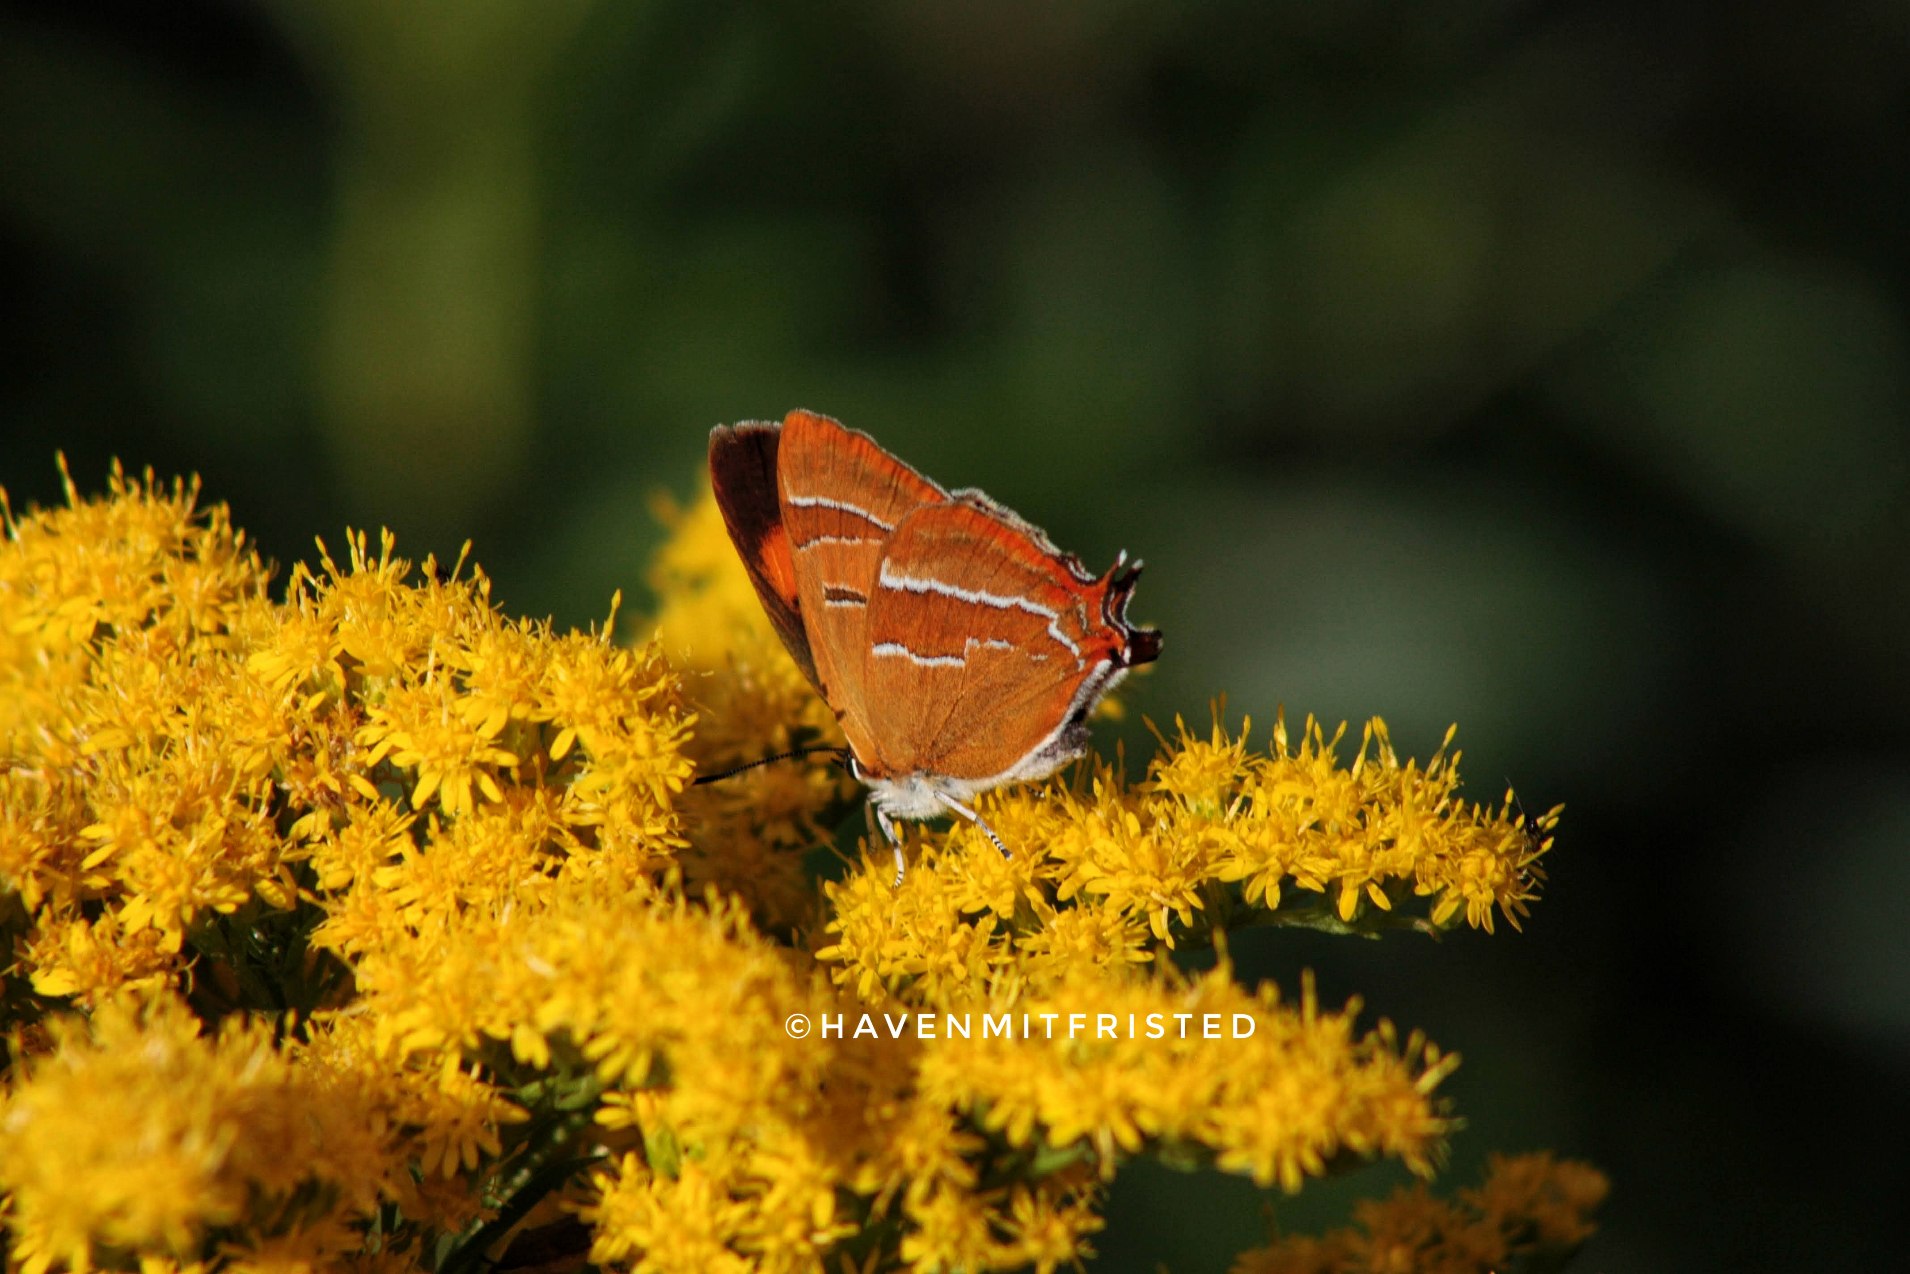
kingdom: Animalia
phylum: Arthropoda
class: Insecta
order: Lepidoptera
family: Lycaenidae
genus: Thecla
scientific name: Thecla betulae
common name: Guldhale
